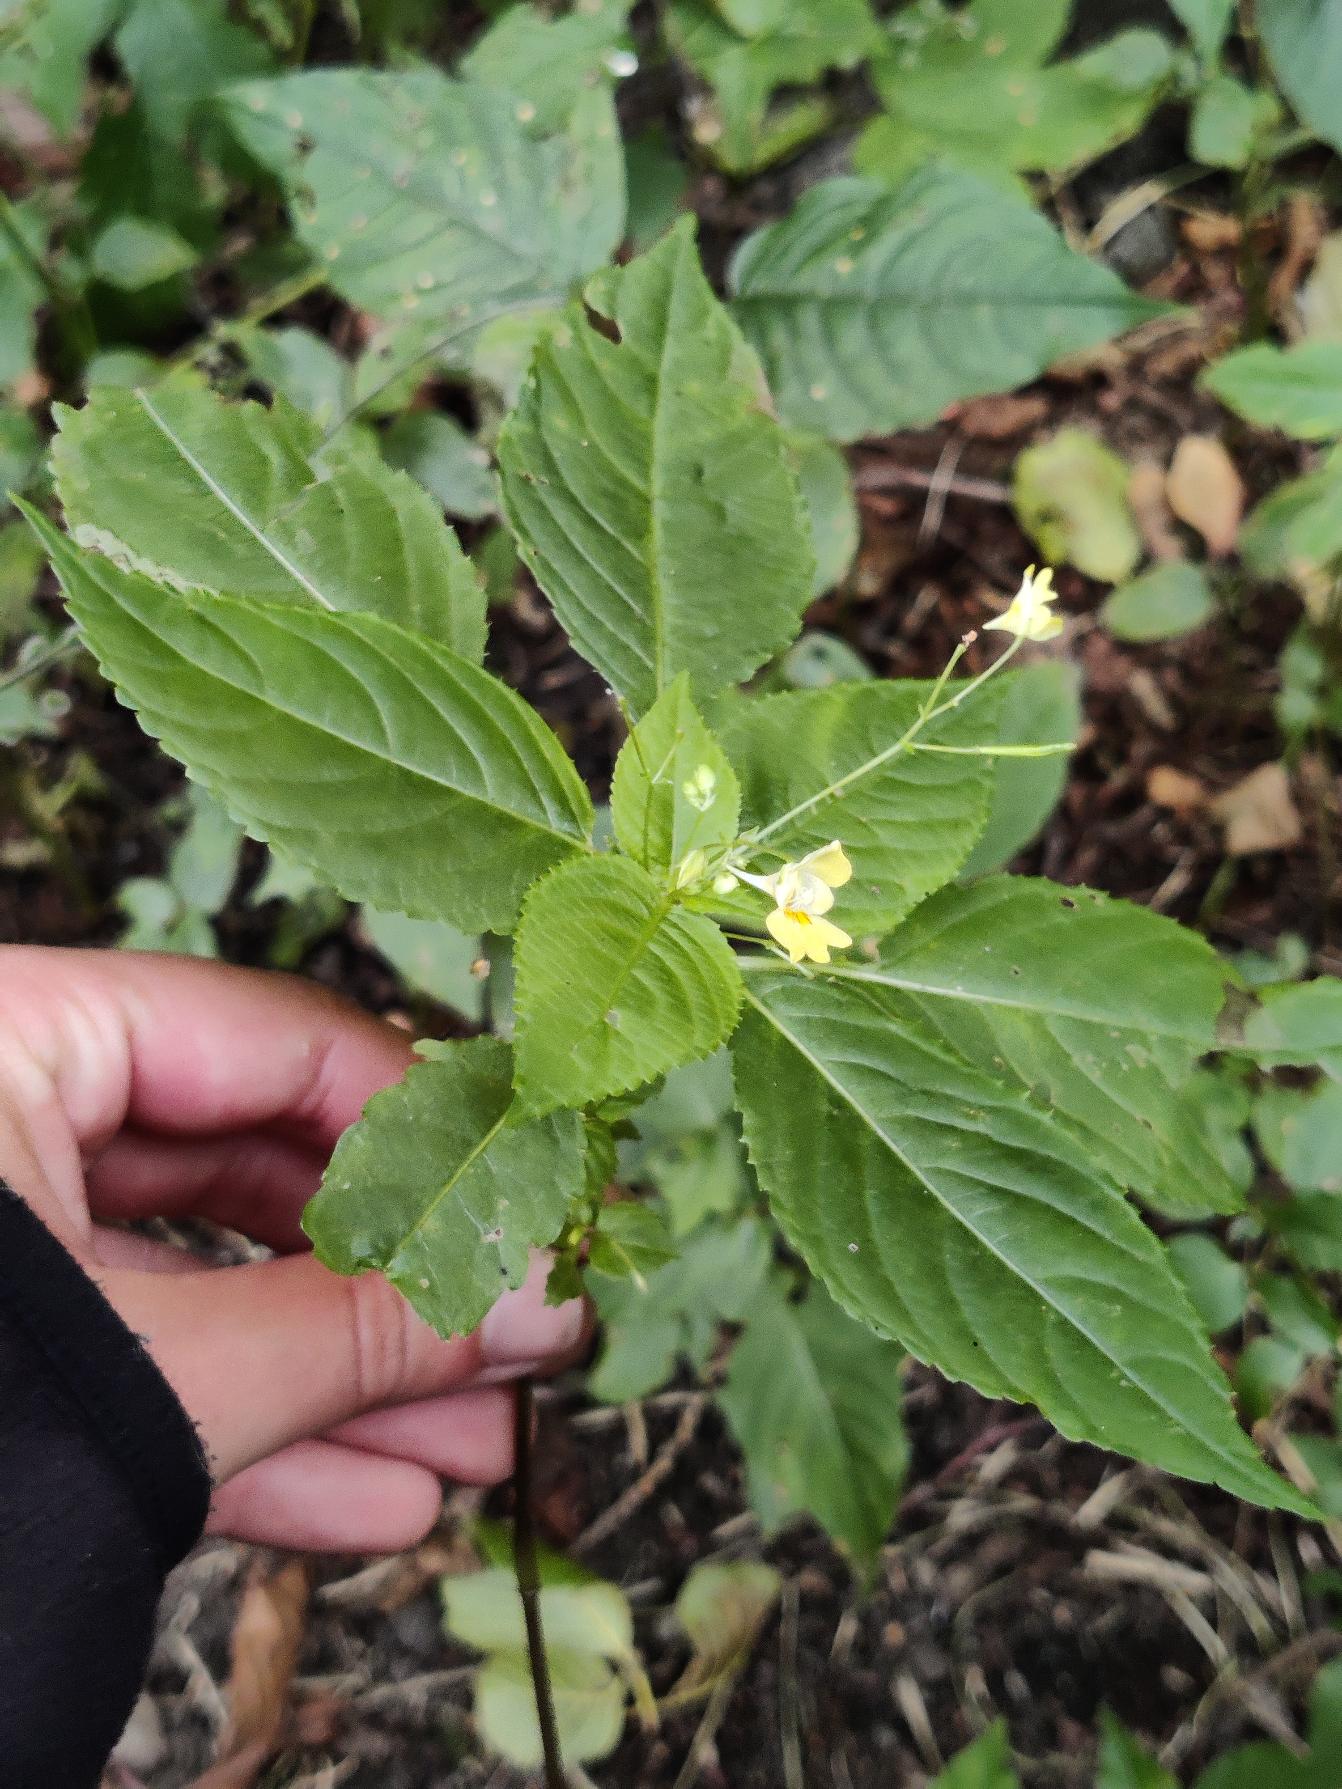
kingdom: Plantae
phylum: Tracheophyta
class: Magnoliopsida
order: Ericales
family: Balsaminaceae
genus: Impatiens
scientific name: Impatiens parviflora
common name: Småblomstret balsamin
